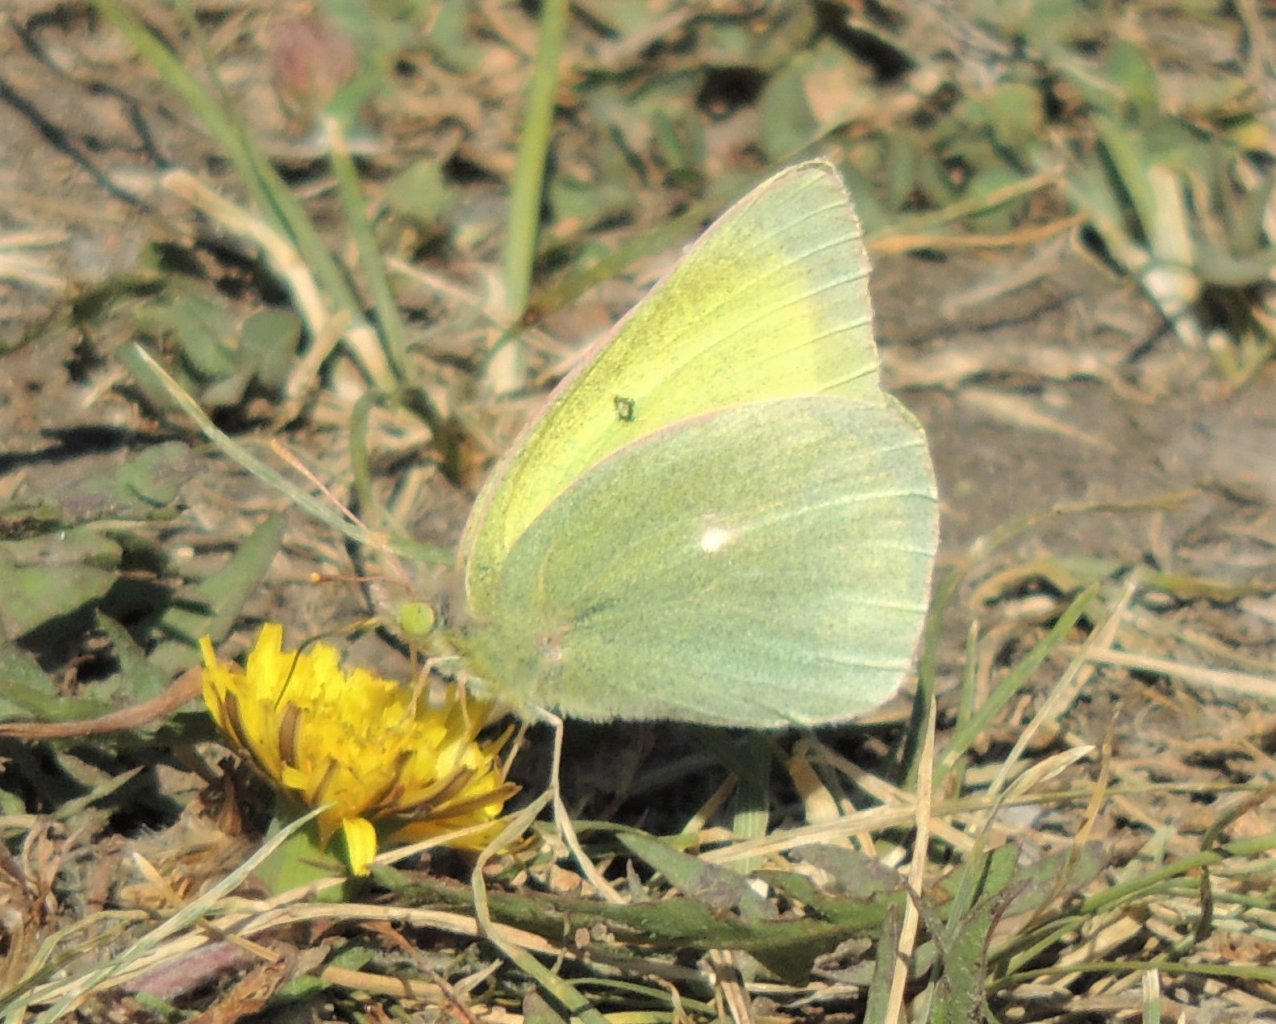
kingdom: Animalia
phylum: Arthropoda
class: Insecta
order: Lepidoptera
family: Pieridae
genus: Colias
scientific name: Colias alexandra
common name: Queen Alexandra's Sulphur
